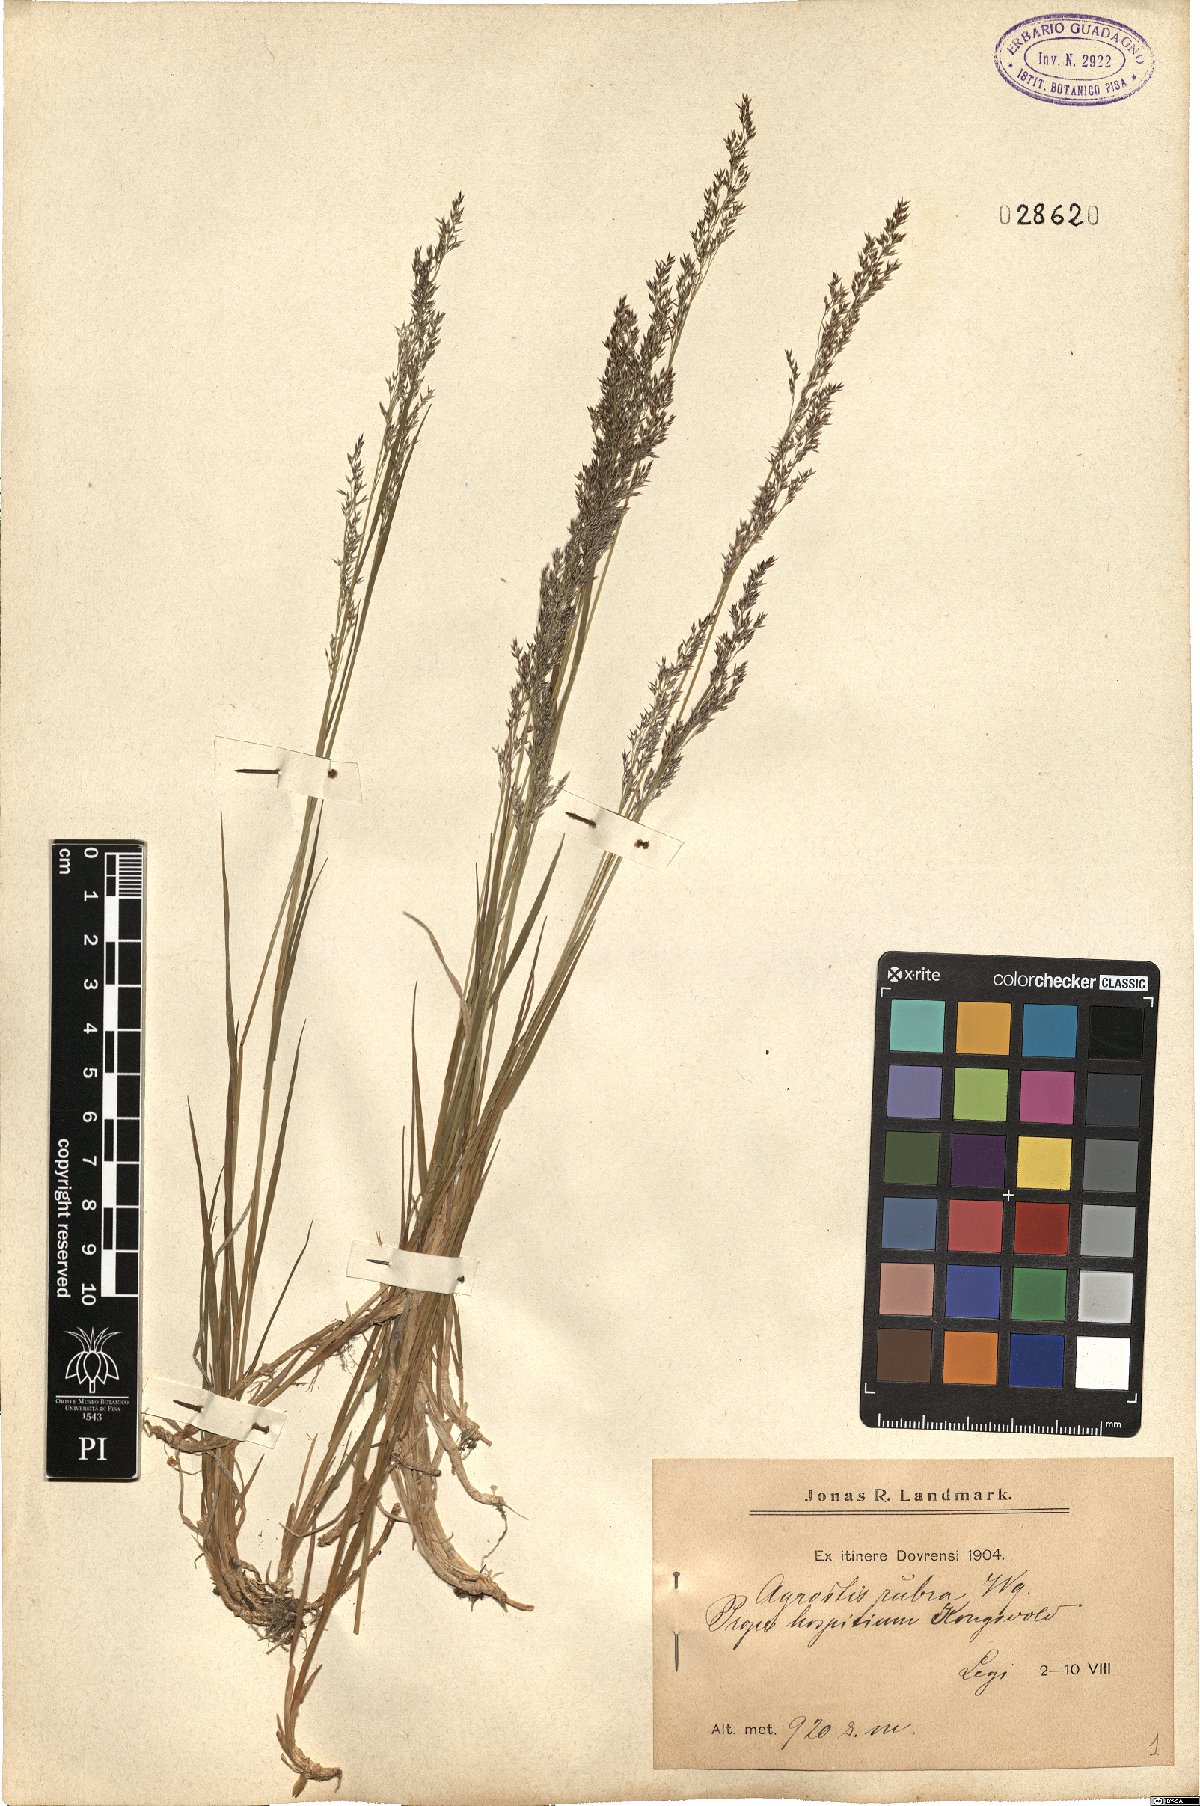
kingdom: Plantae
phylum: Tracheophyta
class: Liliopsida
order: Poales
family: Poaceae
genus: Agrostis
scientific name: Agrostis mertensii
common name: Northern bent
